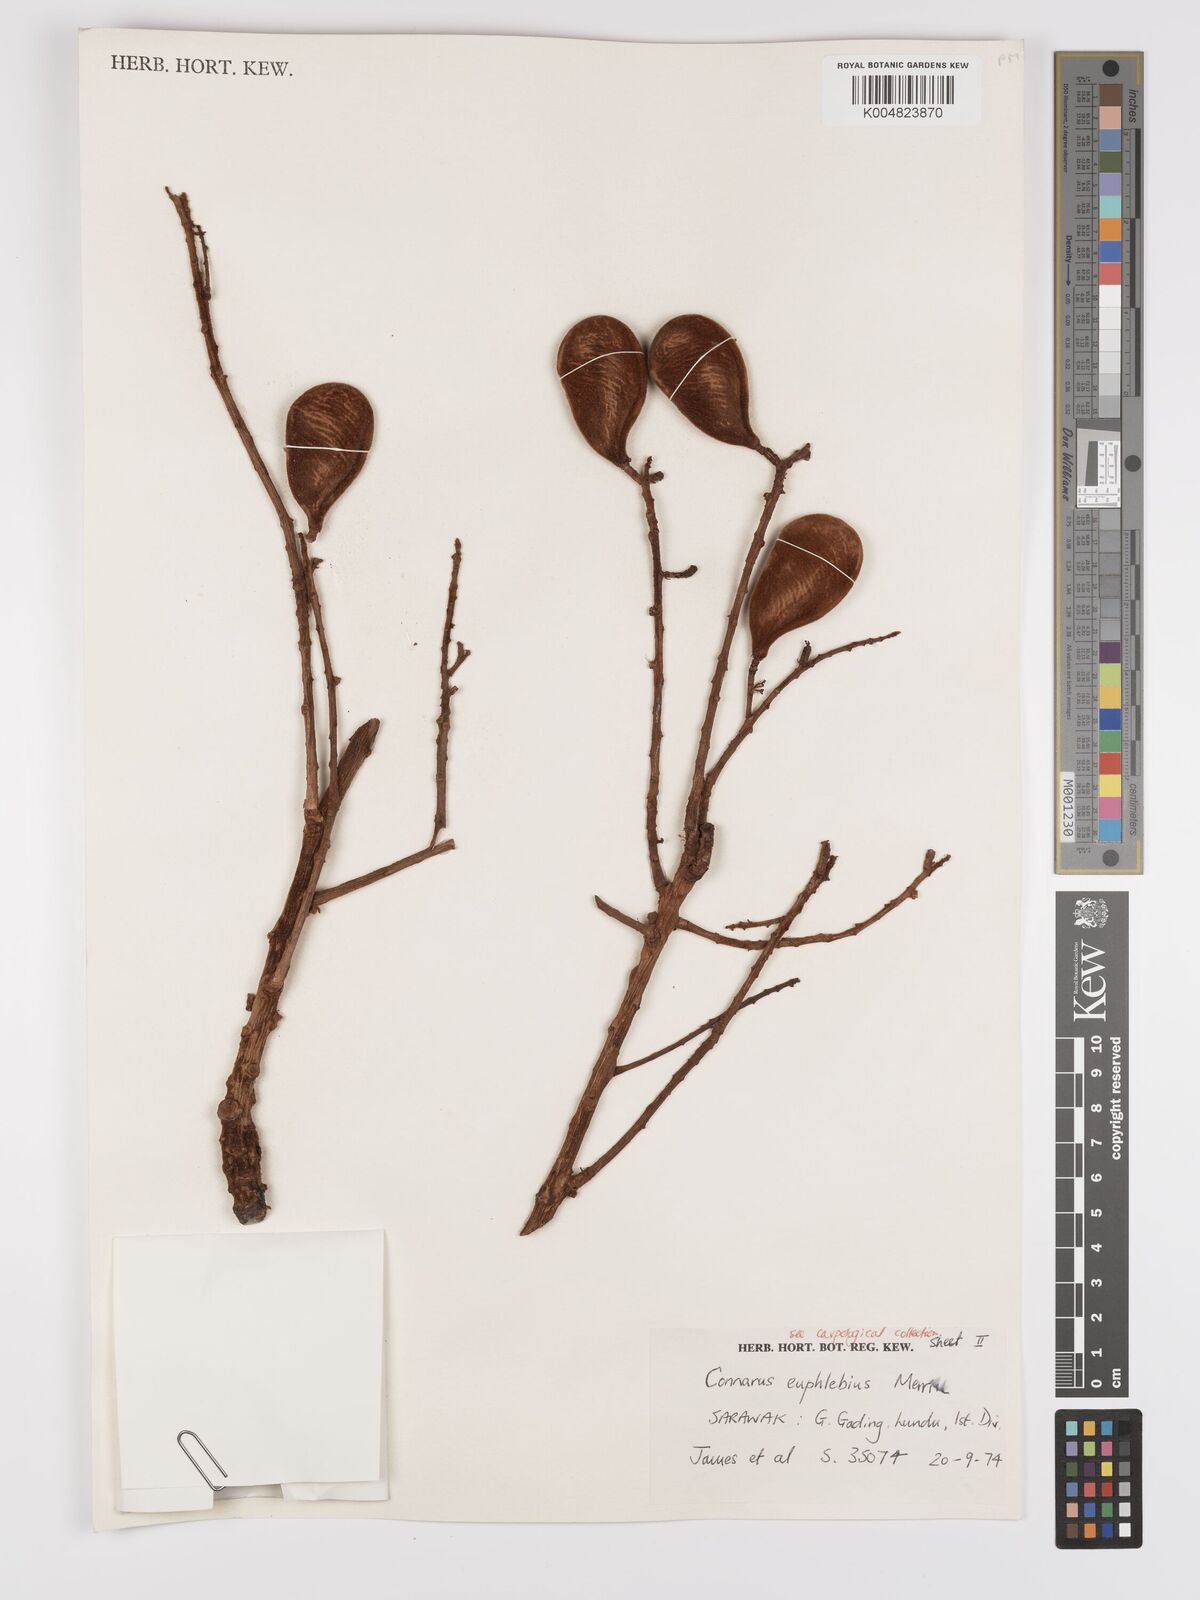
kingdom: Plantae
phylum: Tracheophyta
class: Magnoliopsida
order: Oxalidales
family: Connaraceae
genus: Connarus
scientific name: Connarus euphlebius
